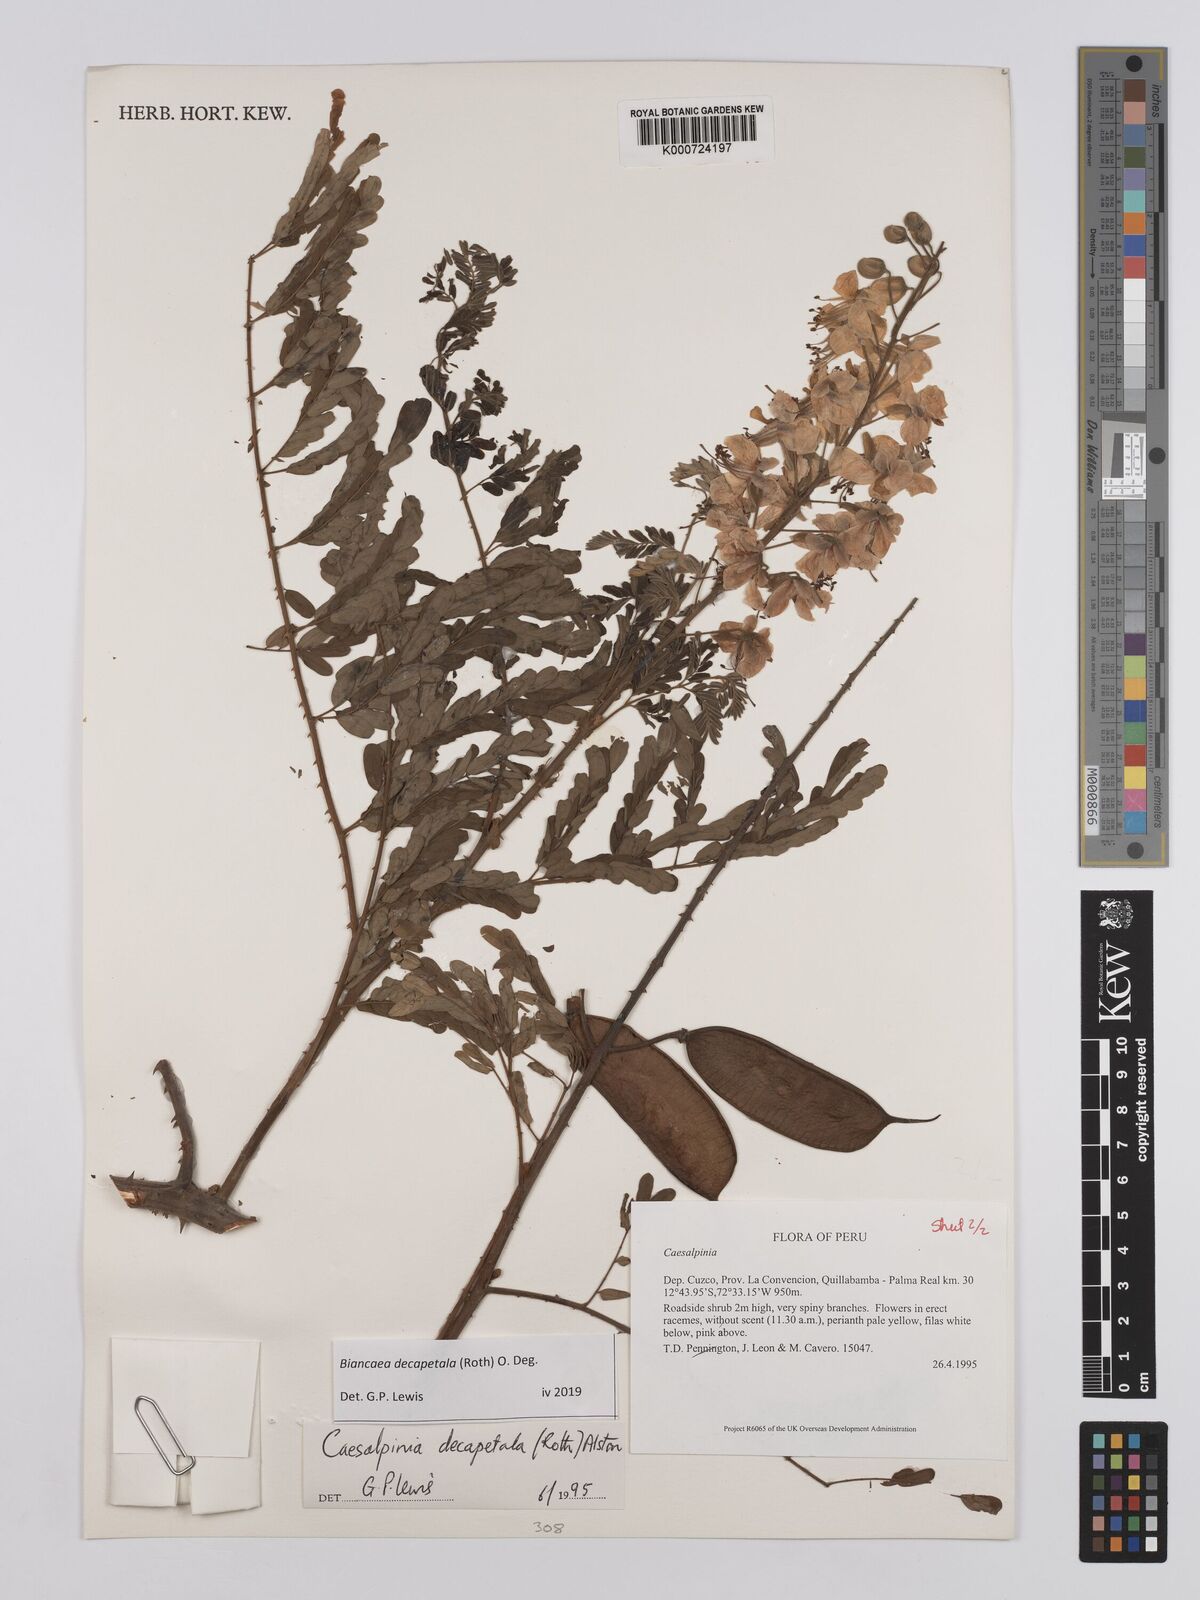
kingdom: Plantae
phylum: Tracheophyta
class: Magnoliopsida
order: Fabales
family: Fabaceae
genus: Biancaea
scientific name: Biancaea decapetala
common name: Cat's claw
